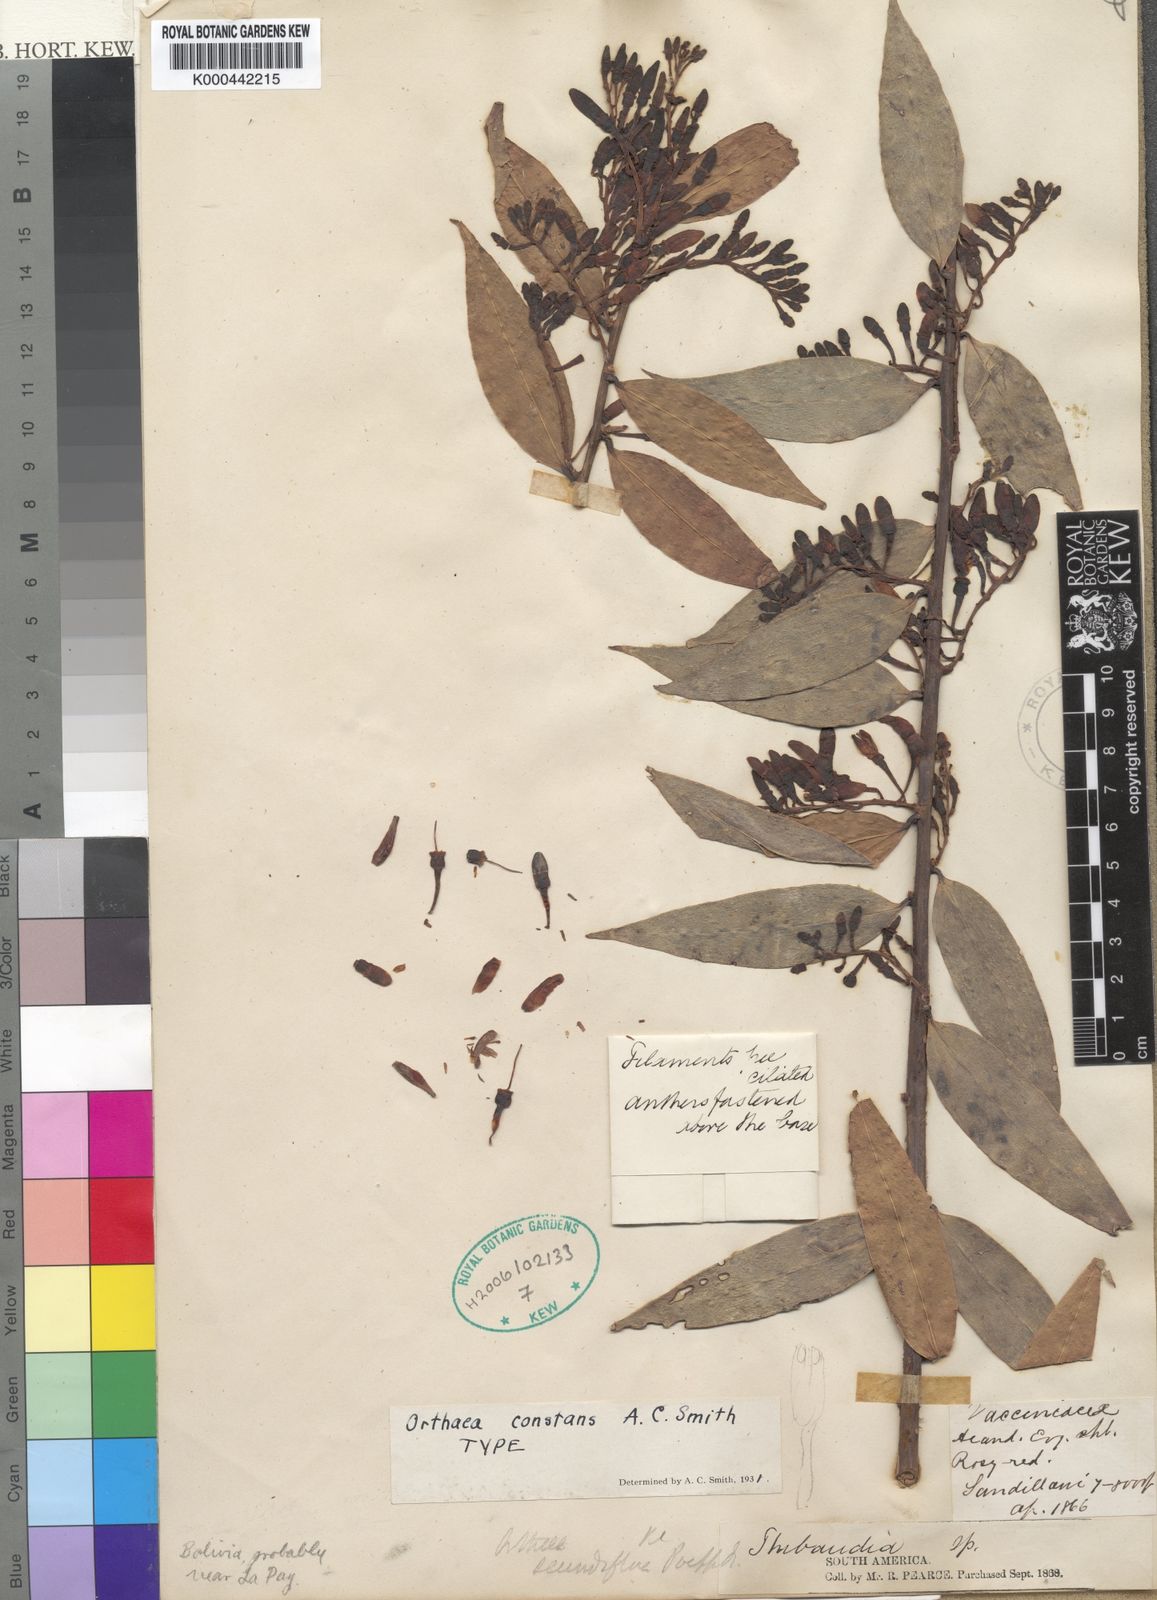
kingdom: Plantae
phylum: Tracheophyta
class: Magnoliopsida
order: Ericales
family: Ericaceae
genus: Orthaea
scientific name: Orthaea constans
